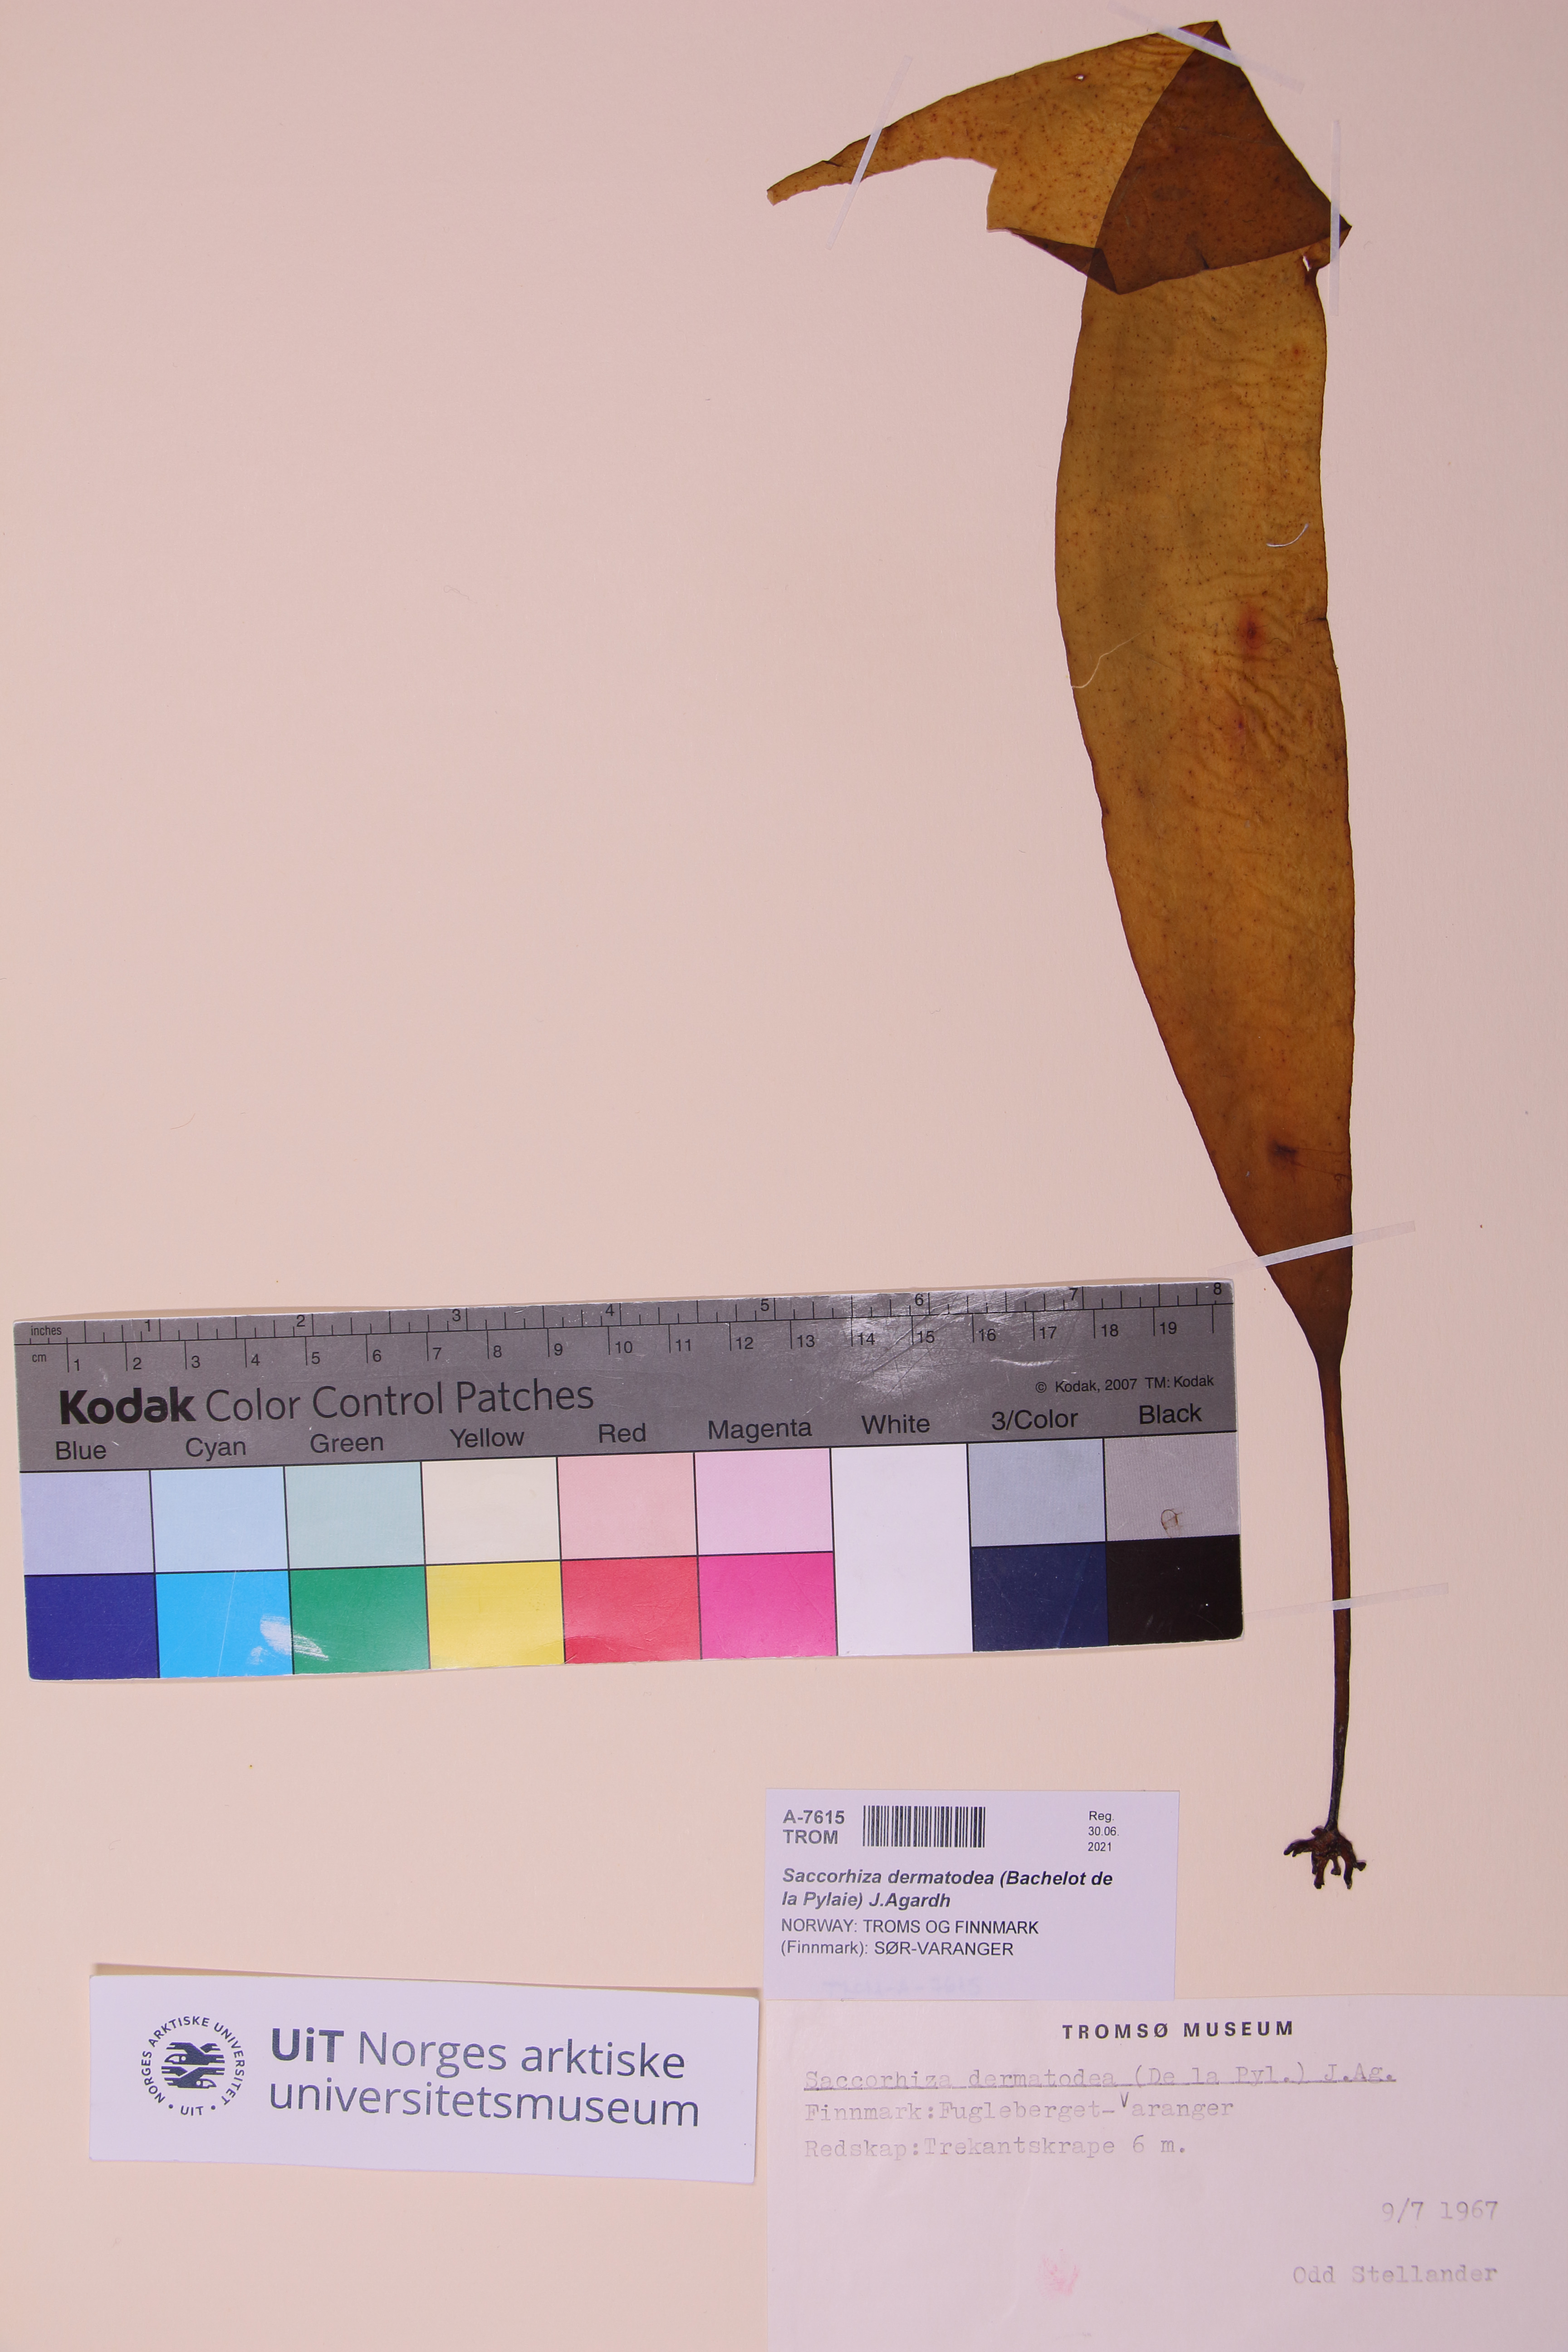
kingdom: Chromista
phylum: Ochrophyta
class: Phaeophyceae
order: Tilopteridales
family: Phyllariaceae
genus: Saccorhiza
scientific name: Saccorhiza dermatodea
